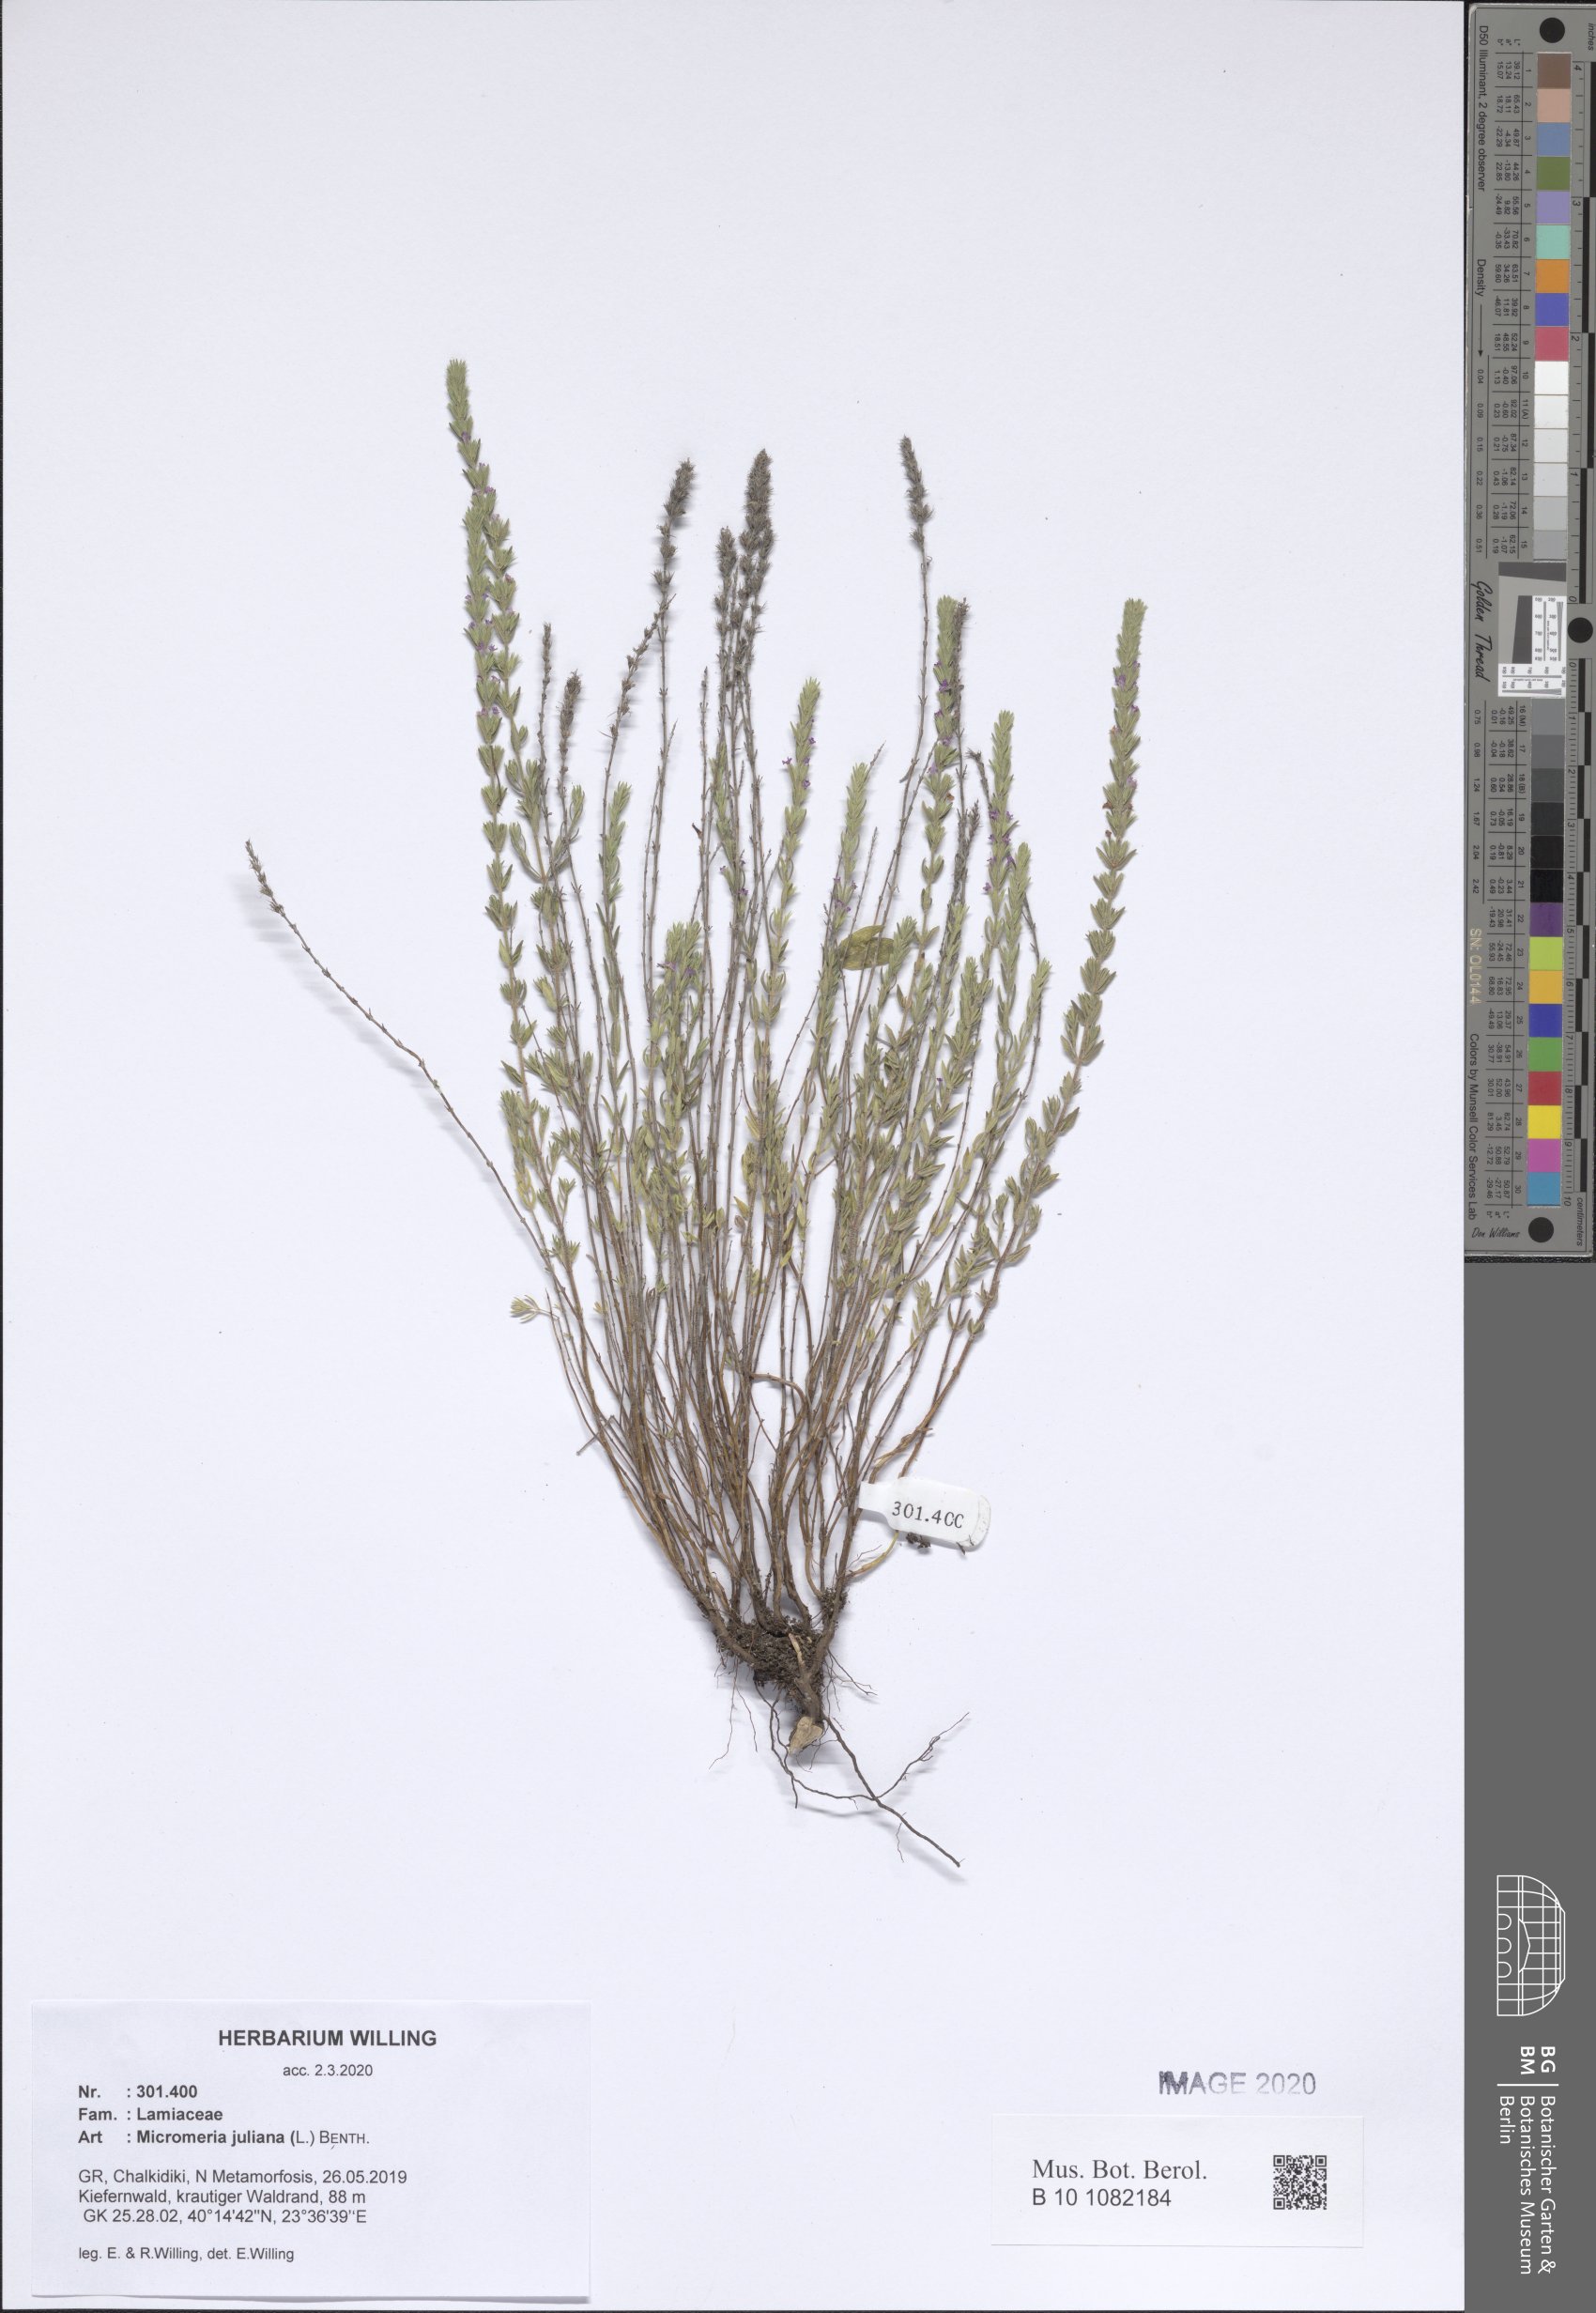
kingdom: Plantae
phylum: Tracheophyta
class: Magnoliopsida
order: Lamiales
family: Lamiaceae
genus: Micromeria
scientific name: Micromeria juliana
